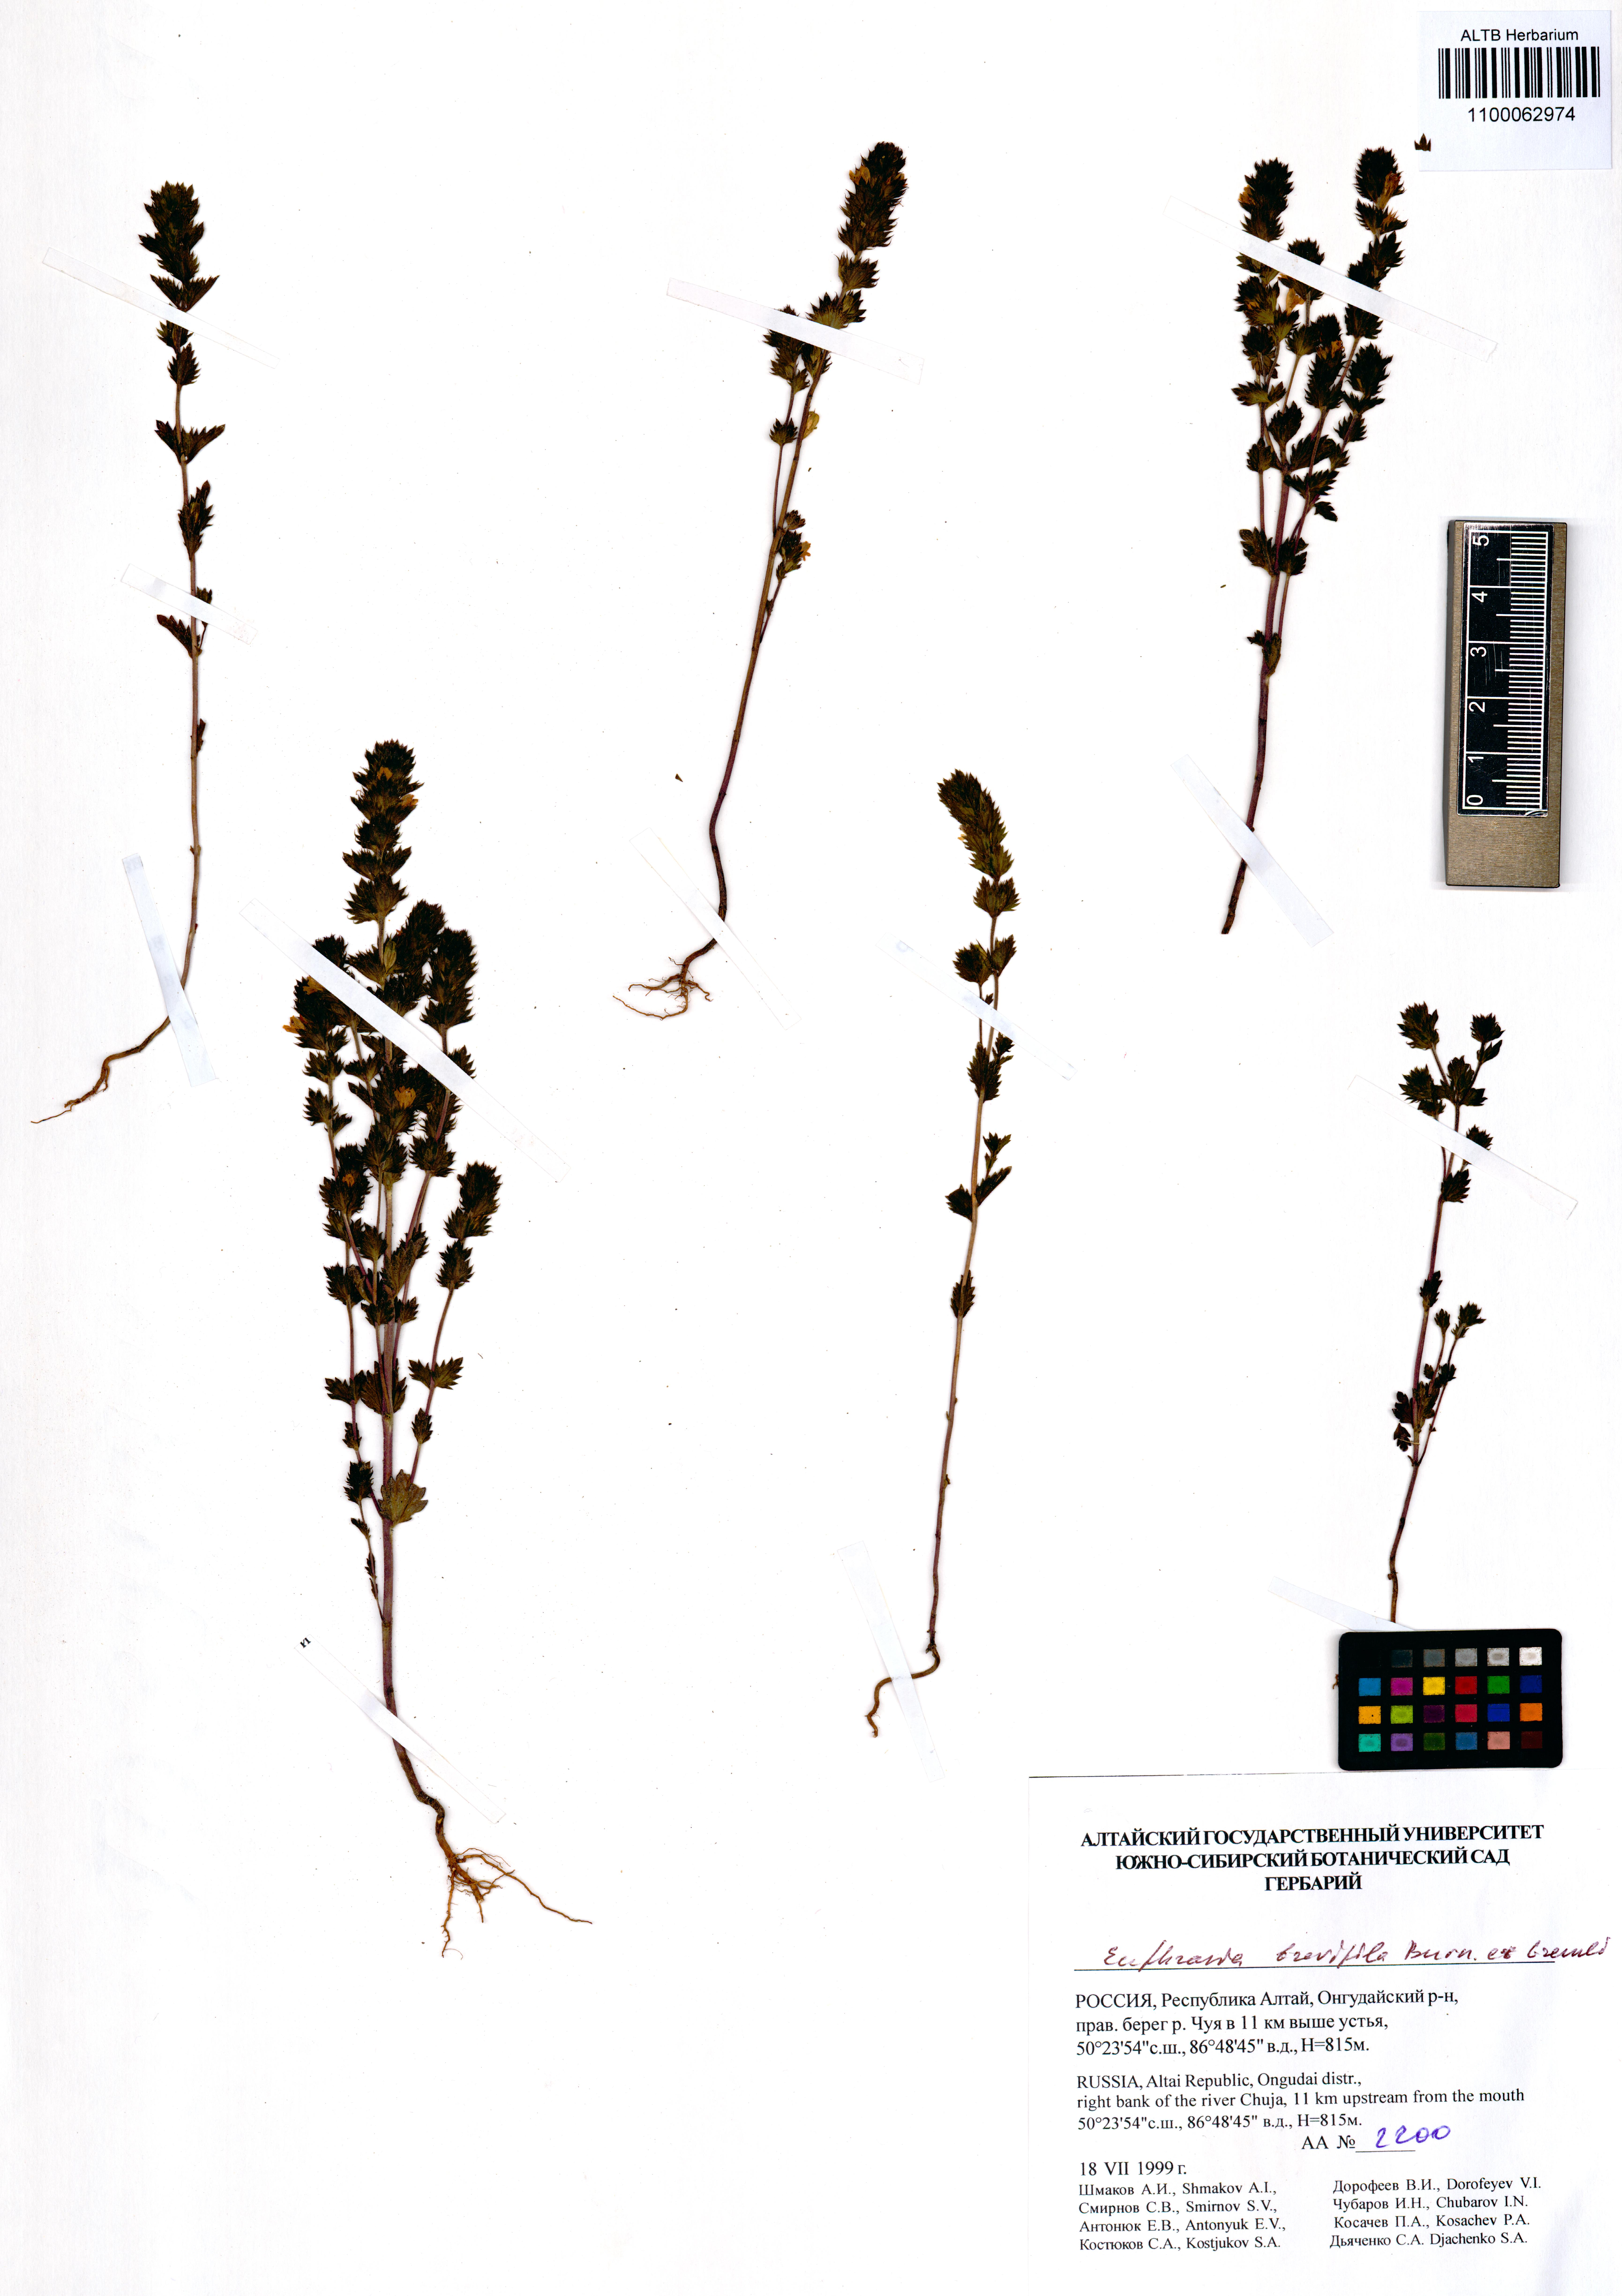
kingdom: Plantae
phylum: Tracheophyta
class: Magnoliopsida
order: Lamiales
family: Orobanchaceae
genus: Euphrasia
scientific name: Euphrasia vernalis
